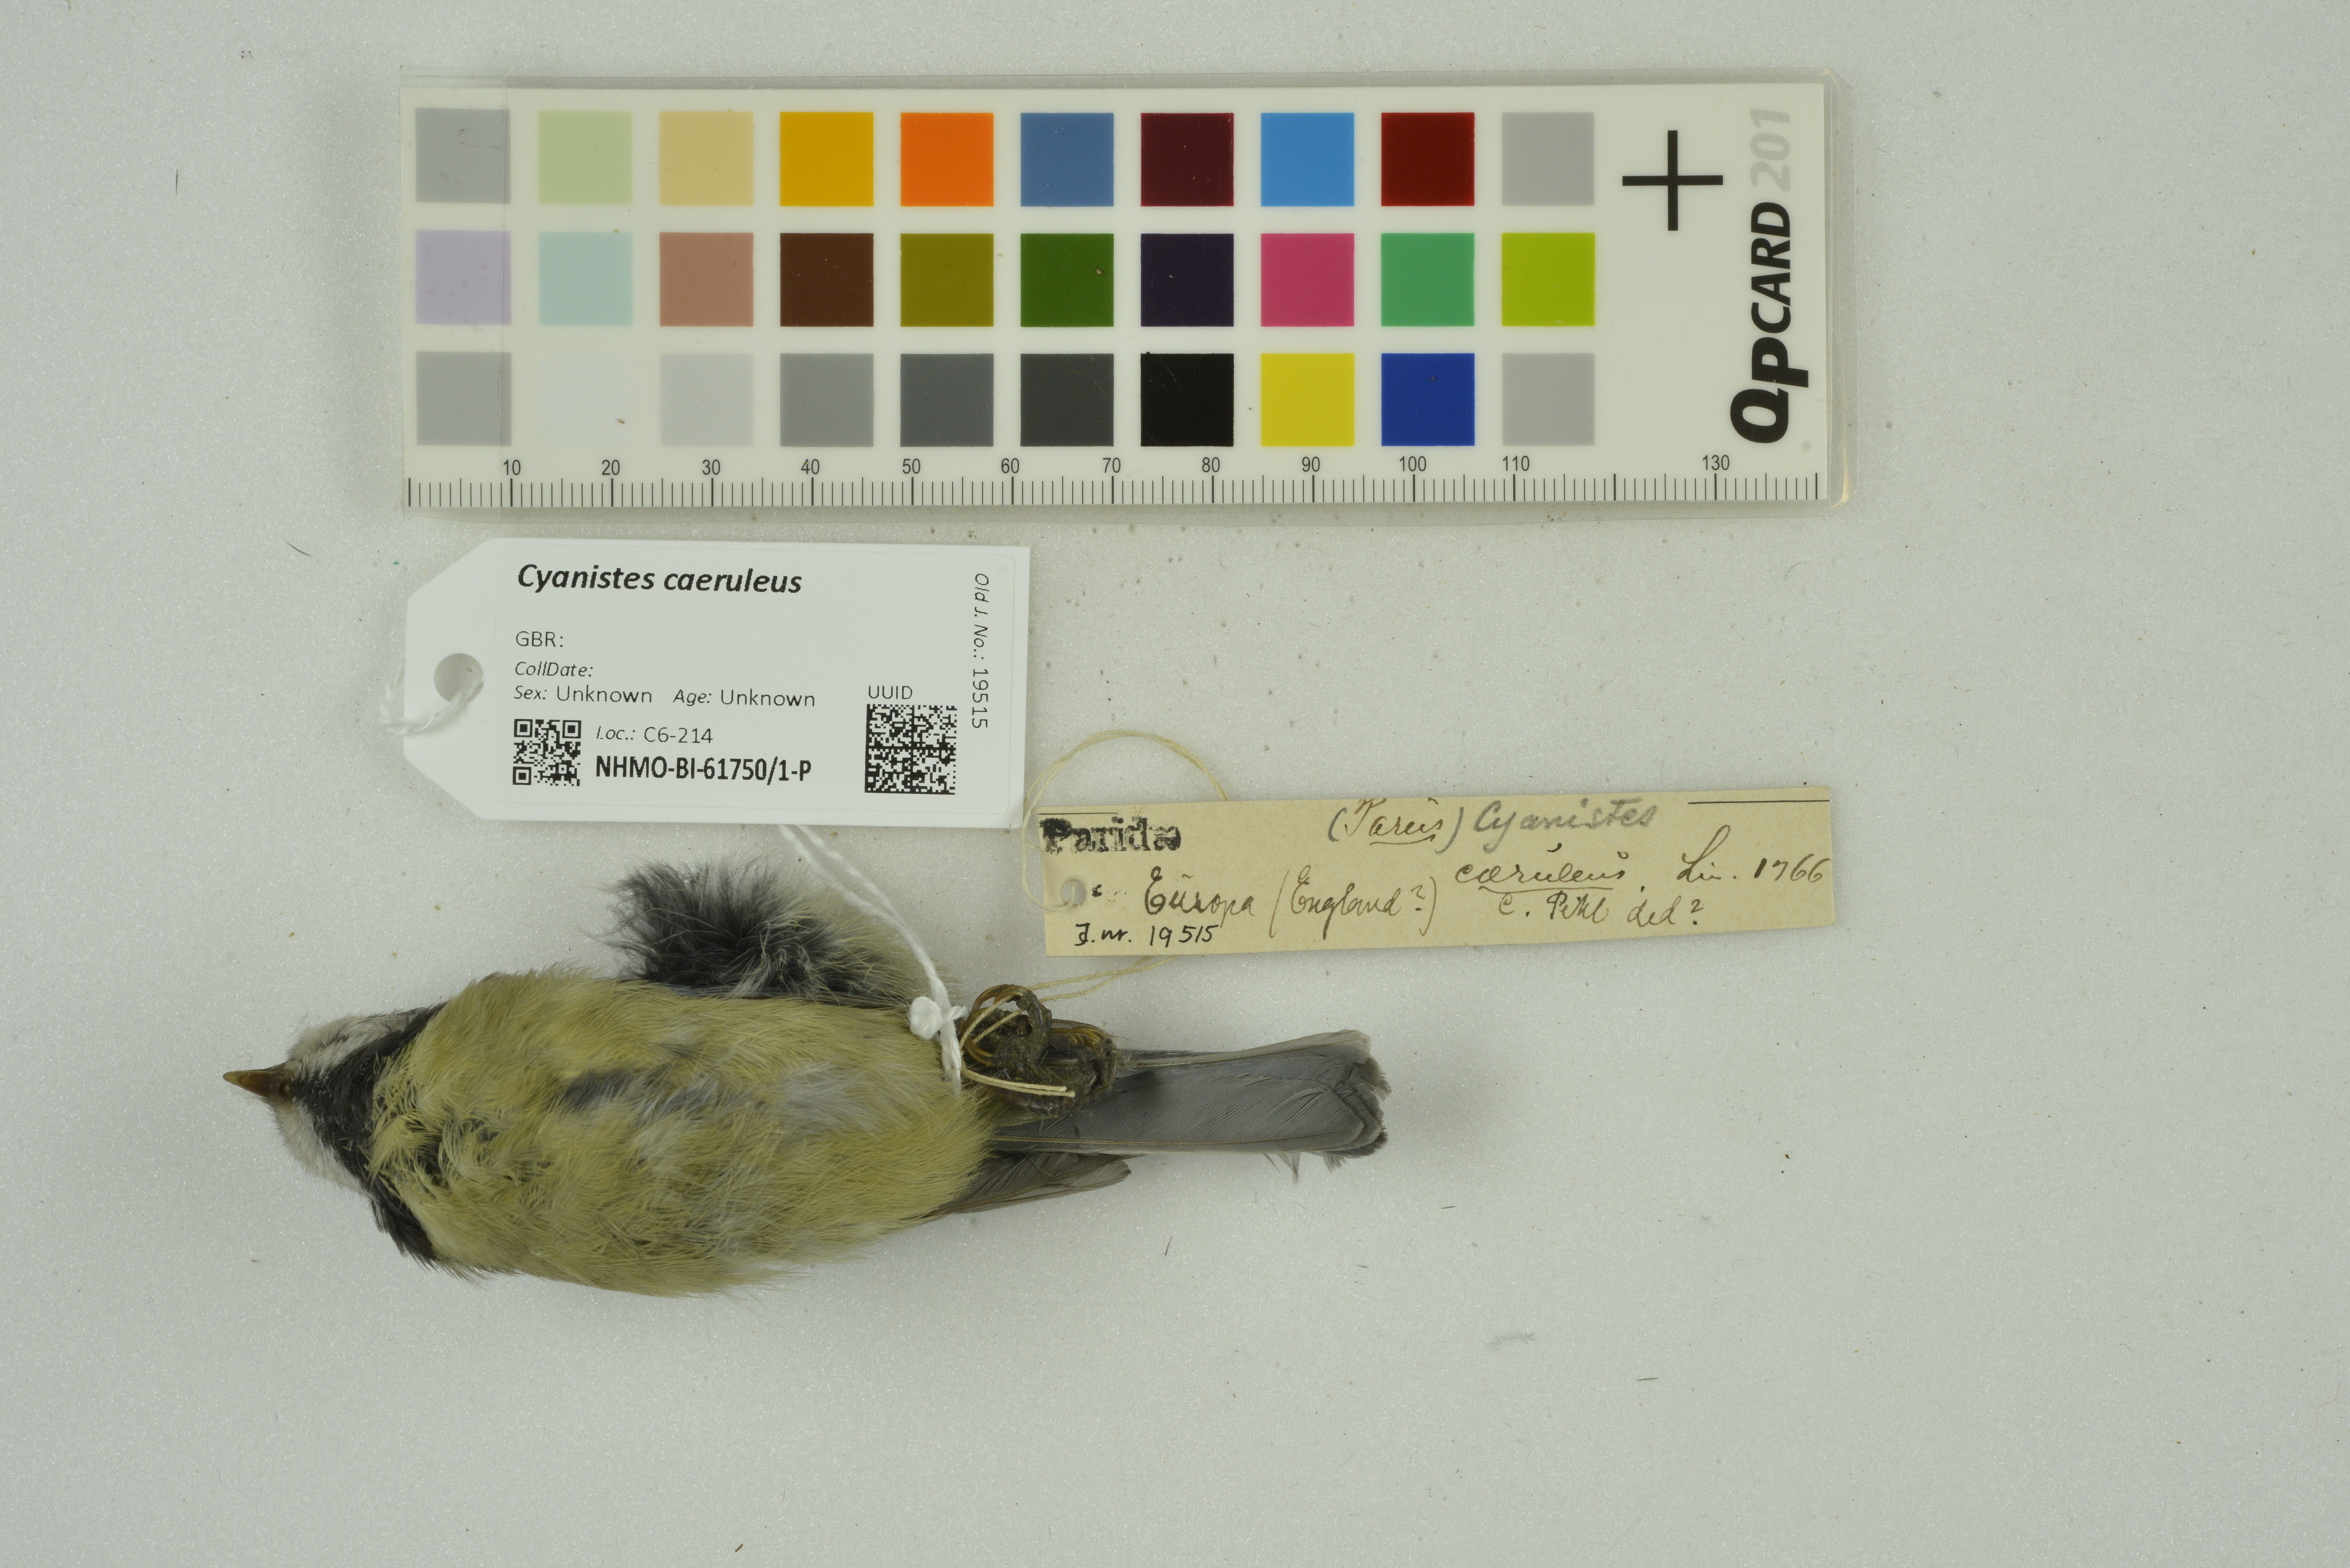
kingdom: Animalia
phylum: Chordata
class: Aves
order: Passeriformes
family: Paridae
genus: Cyanistes
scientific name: Cyanistes caeruleus
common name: Eurasian blue tit
